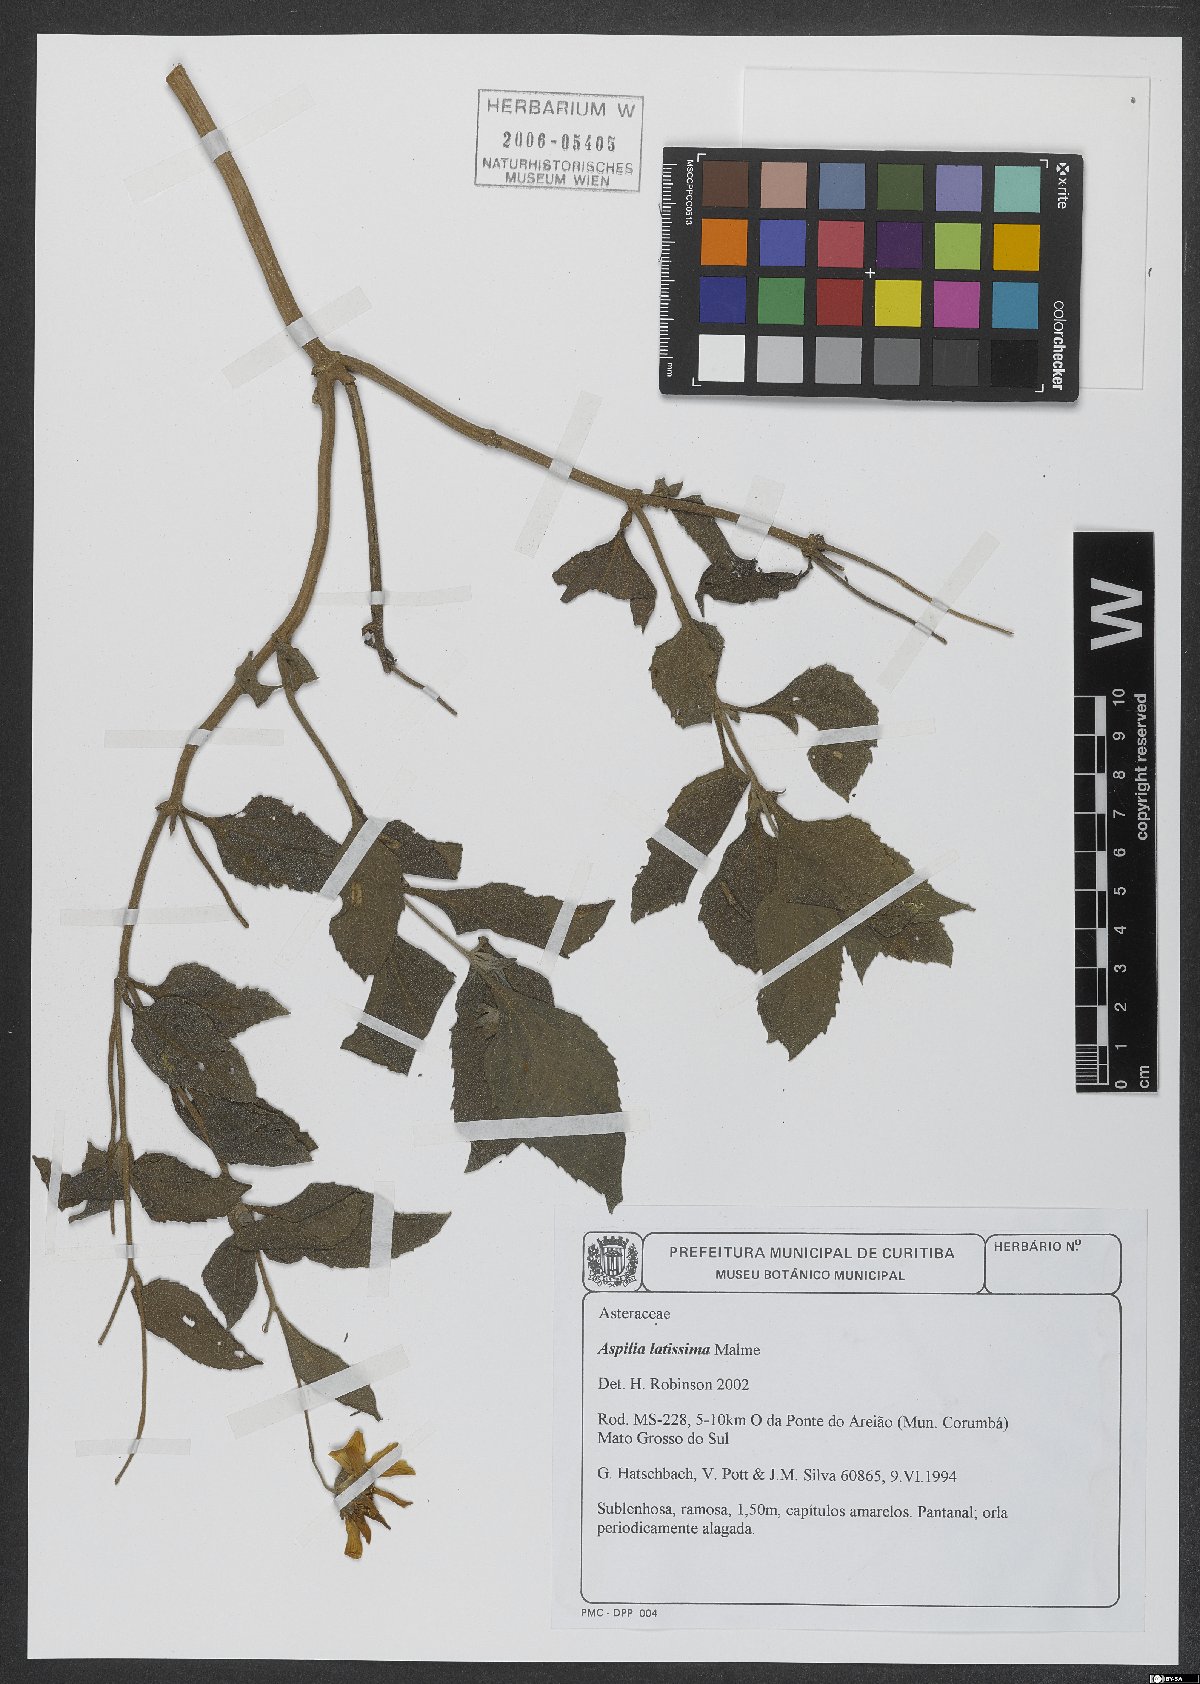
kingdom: Plantae
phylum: Tracheophyta
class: Magnoliopsida
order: Asterales
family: Asteraceae
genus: Aspilia
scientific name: Aspilia latissima
